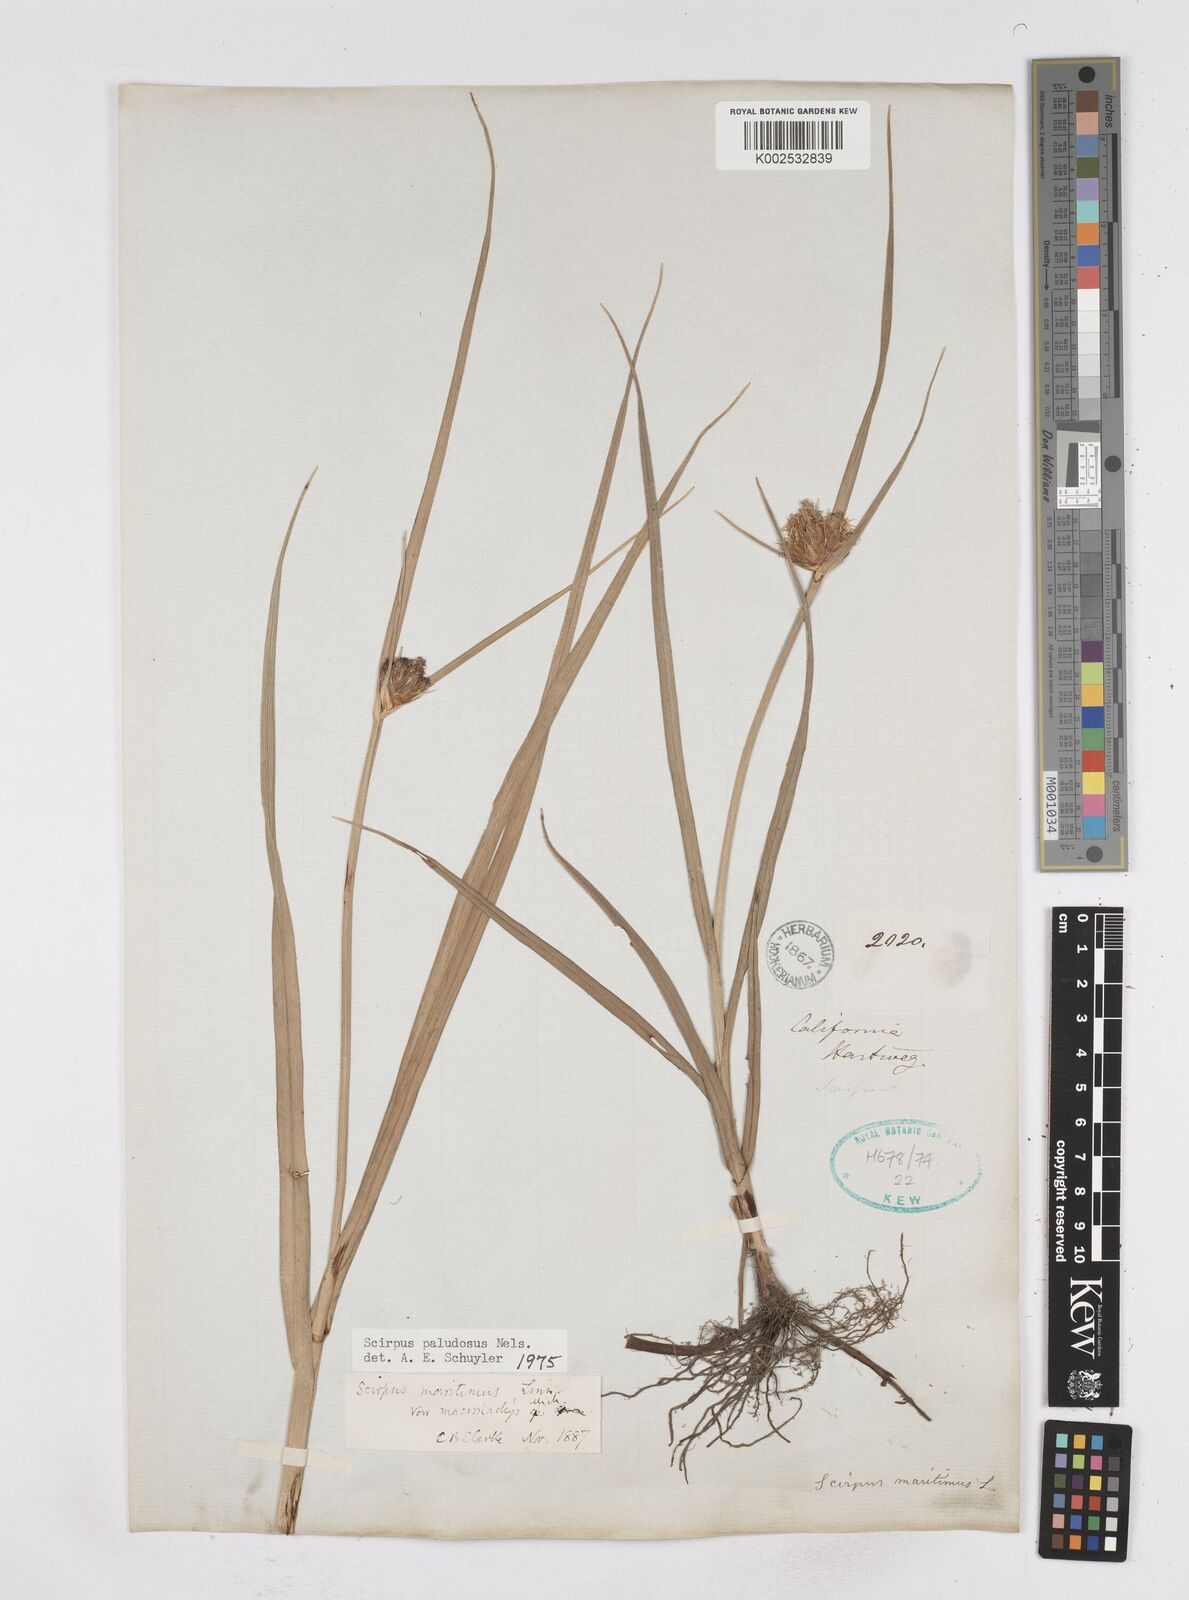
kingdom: Plantae
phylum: Tracheophyta
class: Liliopsida
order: Poales
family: Cyperaceae
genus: Bolboschoenus
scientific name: Bolboschoenus maritimus
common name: Sea club-rush
